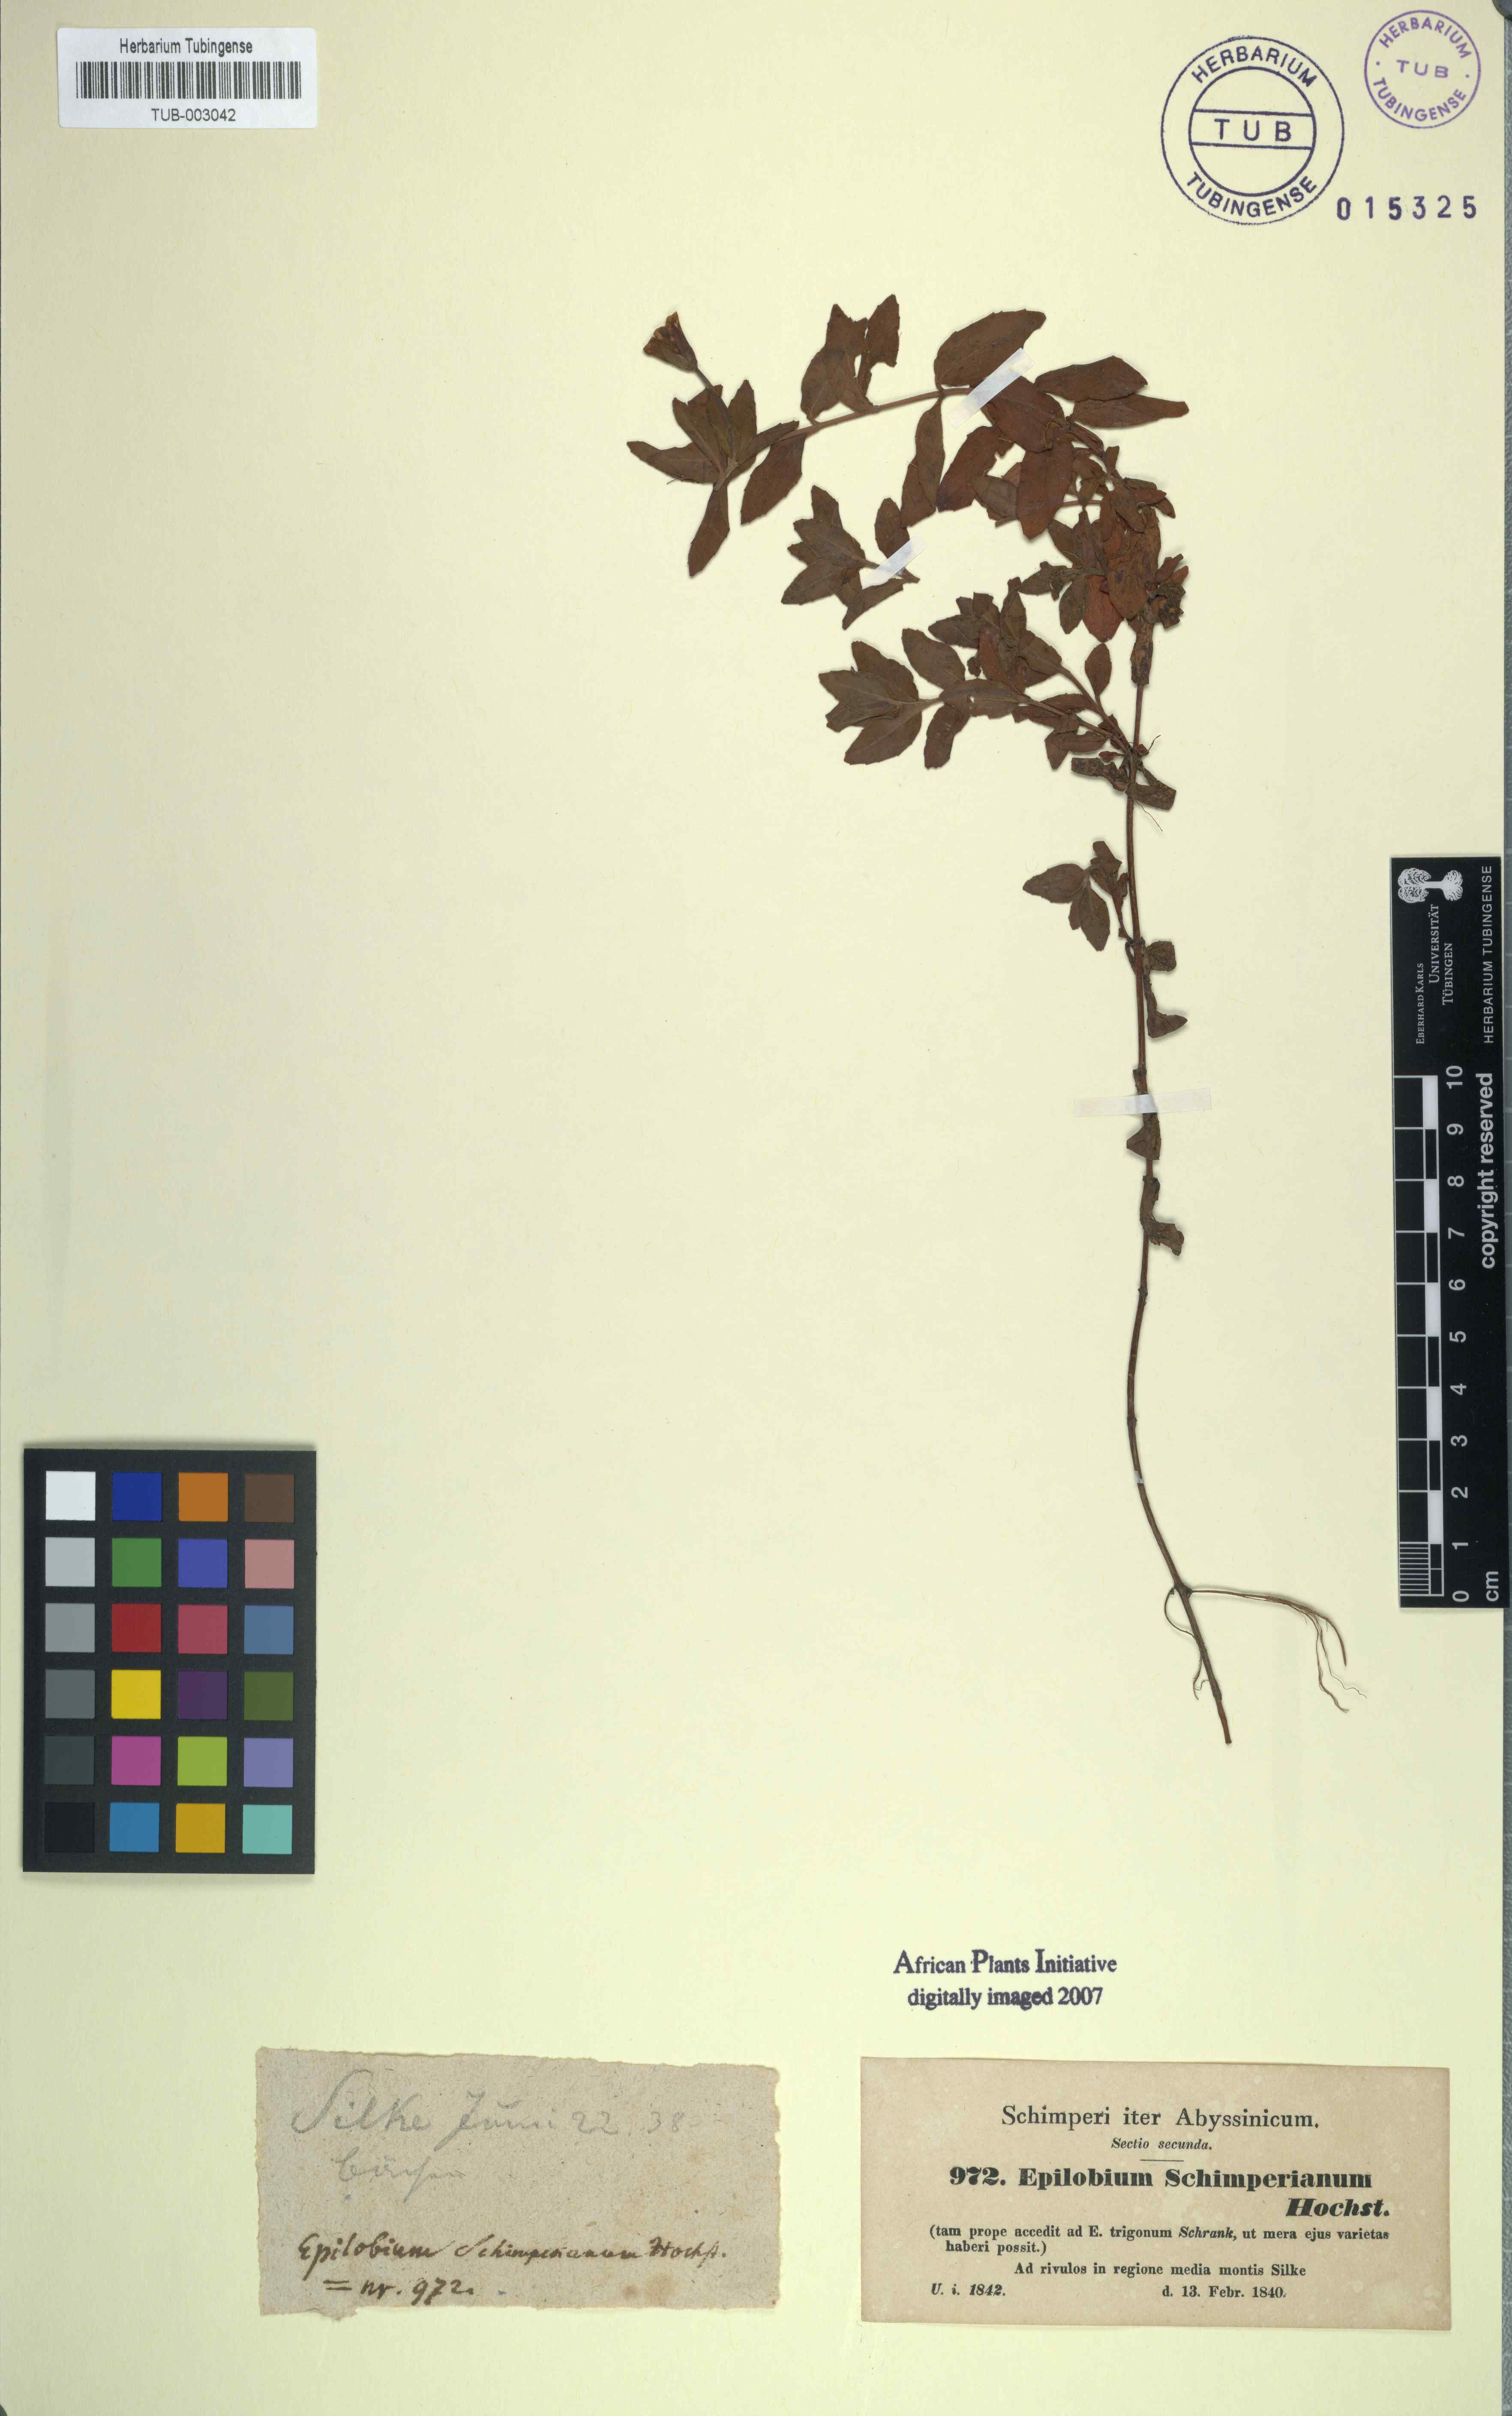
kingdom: Plantae
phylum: Tracheophyta
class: Magnoliopsida
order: Myrtales
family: Onagraceae
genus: Epilobium
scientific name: Epilobium stereophyllum
